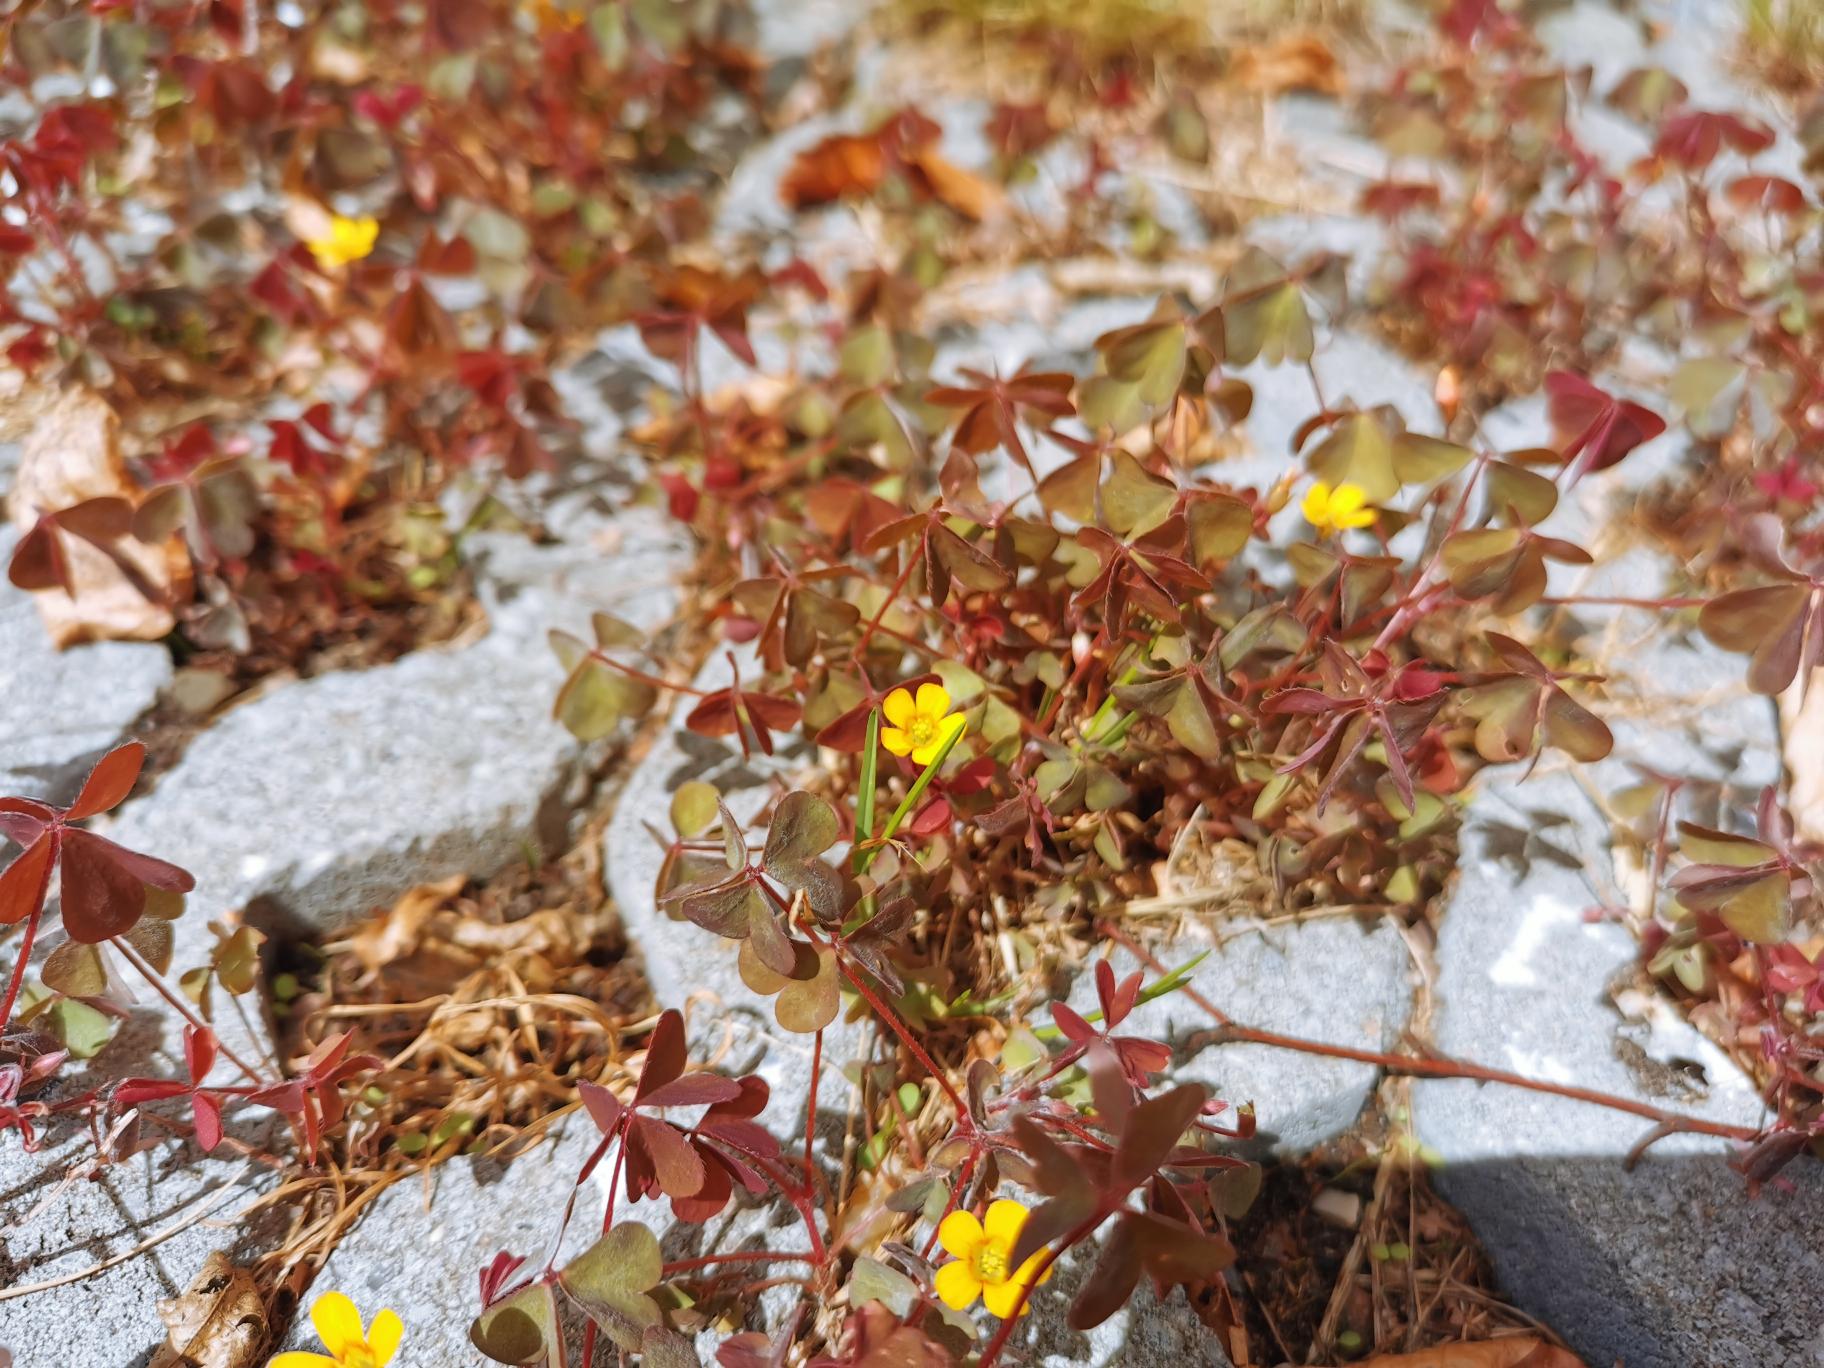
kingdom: Plantae
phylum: Tracheophyta
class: Magnoliopsida
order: Oxalidales
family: Oxalidaceae
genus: Oxalis
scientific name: Oxalis corniculata
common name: Nedliggende surkløver
